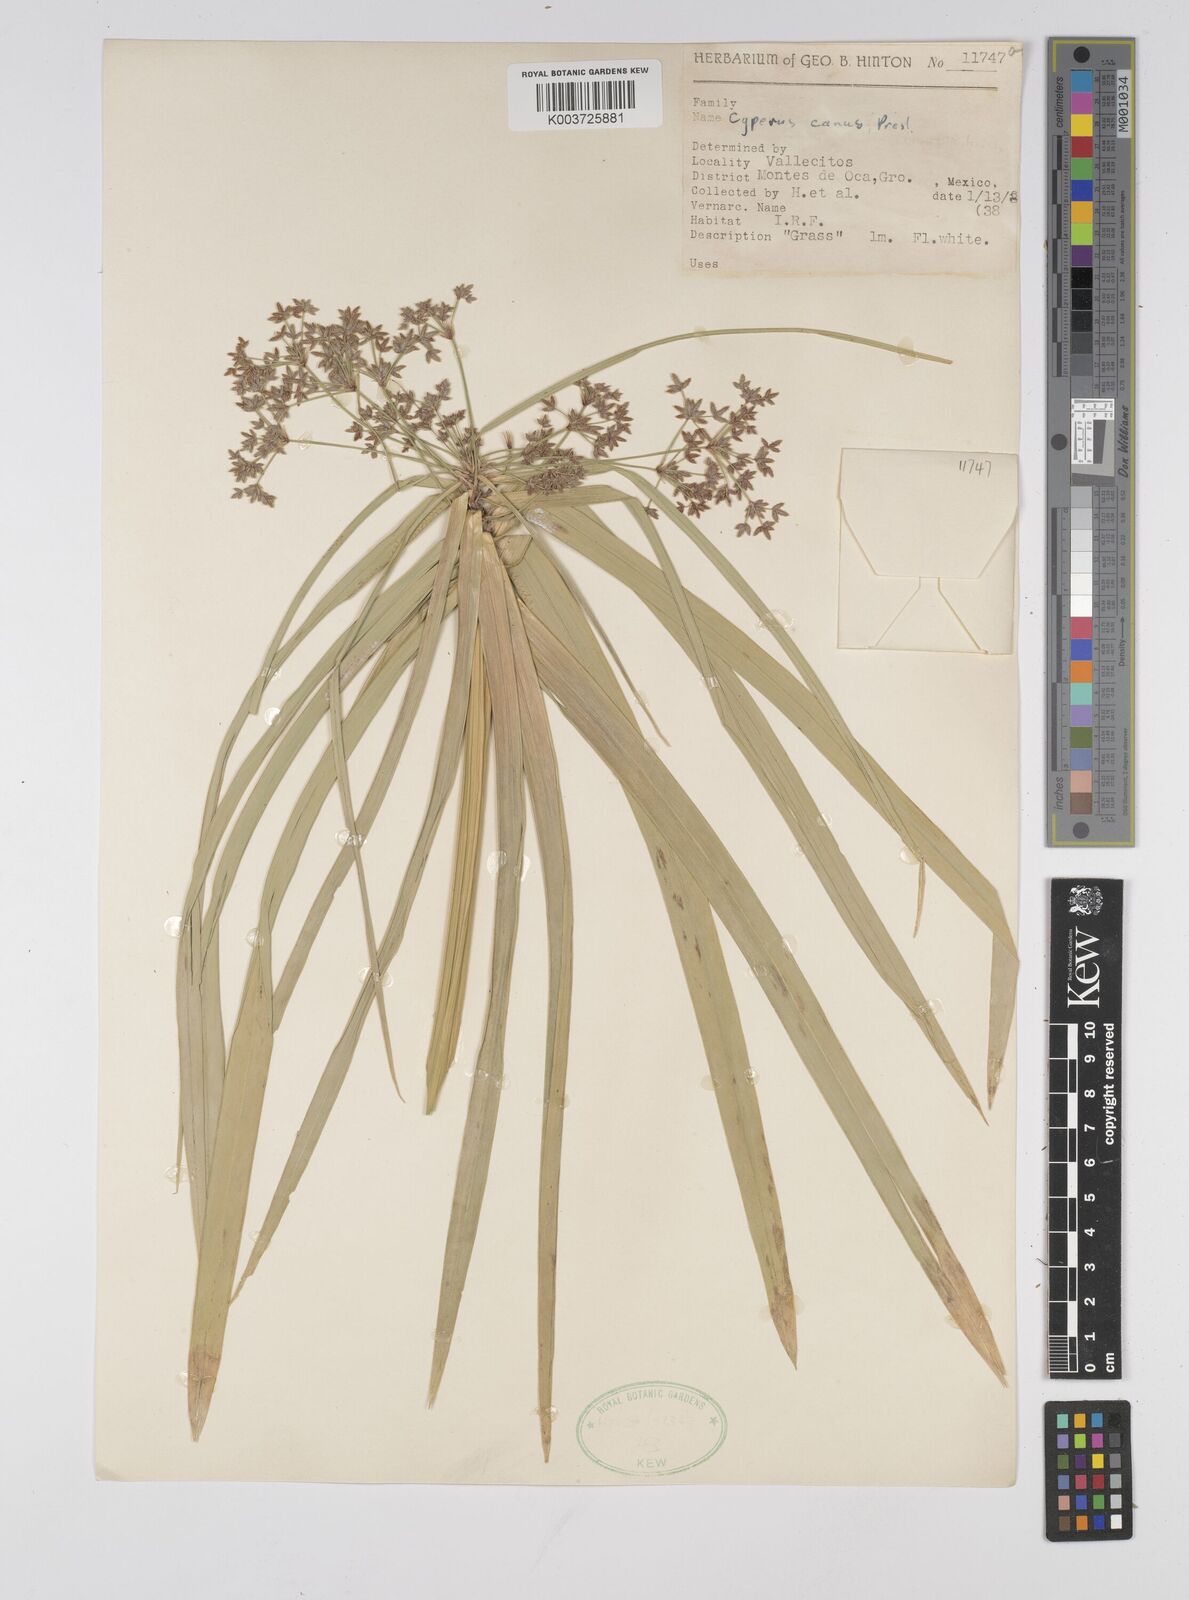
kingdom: Plantae
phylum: Tracheophyta
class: Liliopsida
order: Poales
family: Cyperaceae
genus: Cyperus
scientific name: Cyperus canus
